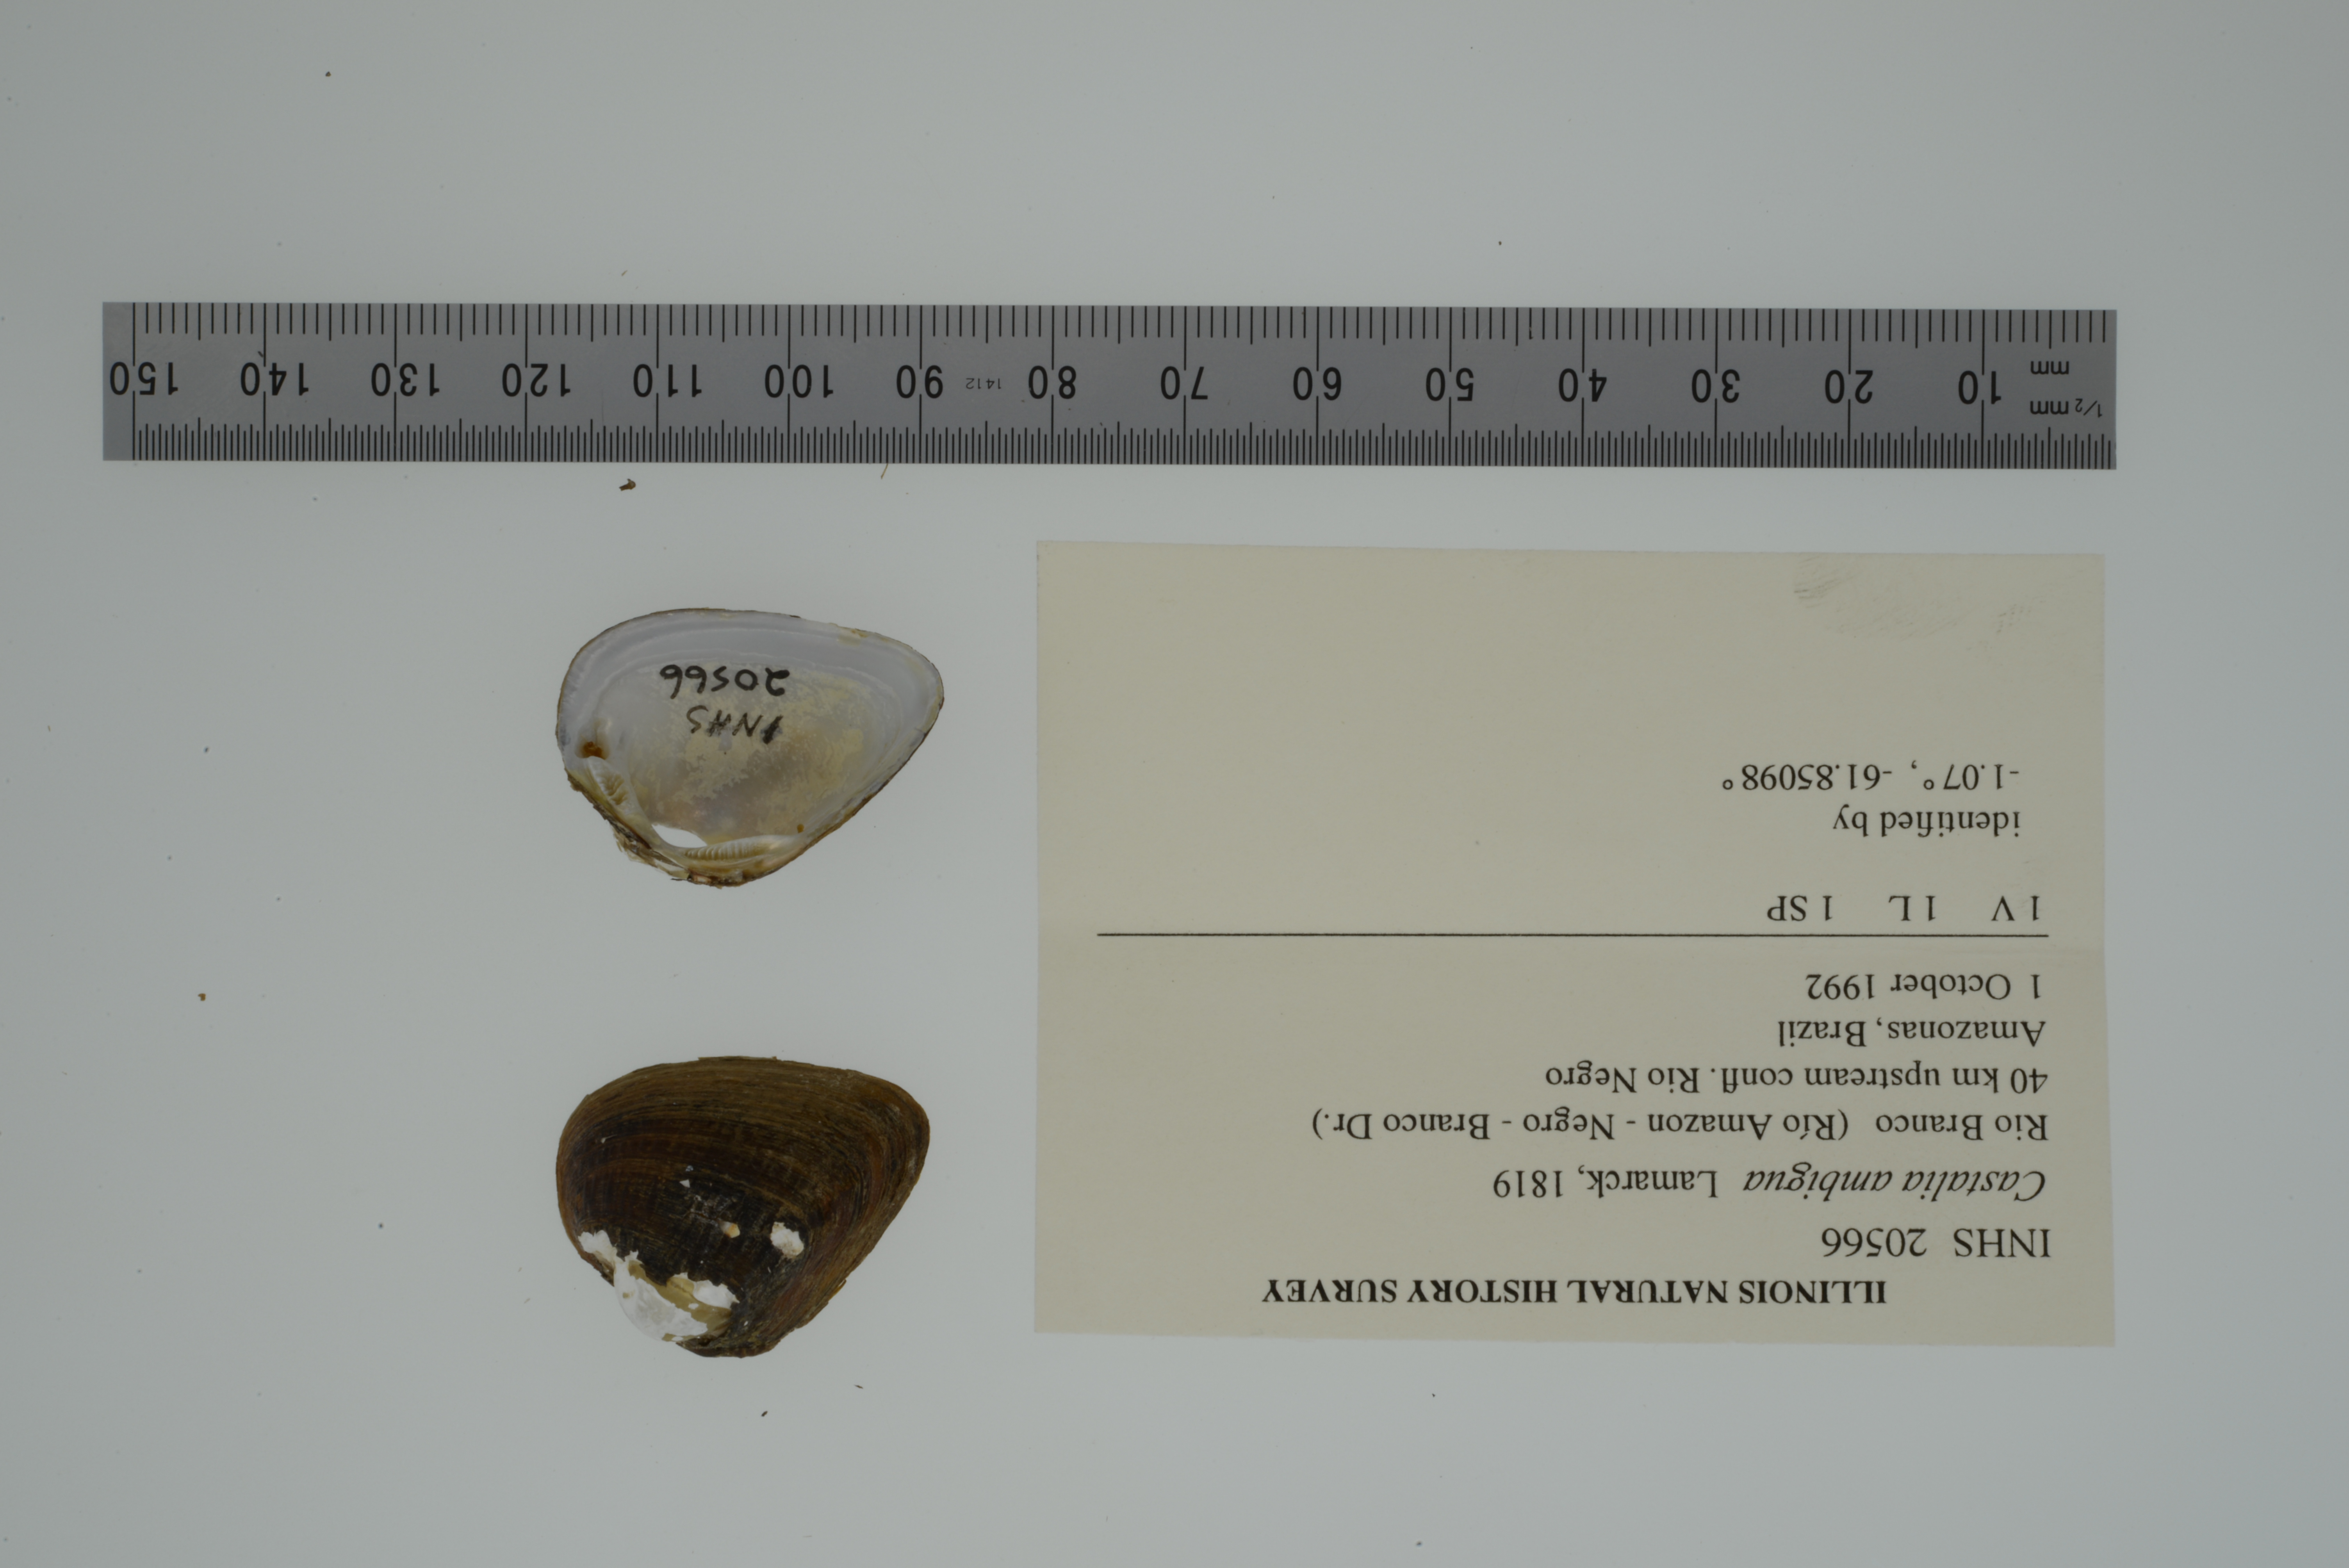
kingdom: Animalia
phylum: Mollusca
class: Bivalvia
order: Unionida
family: Hyriidae
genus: Castalia
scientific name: Castalia ambigua
